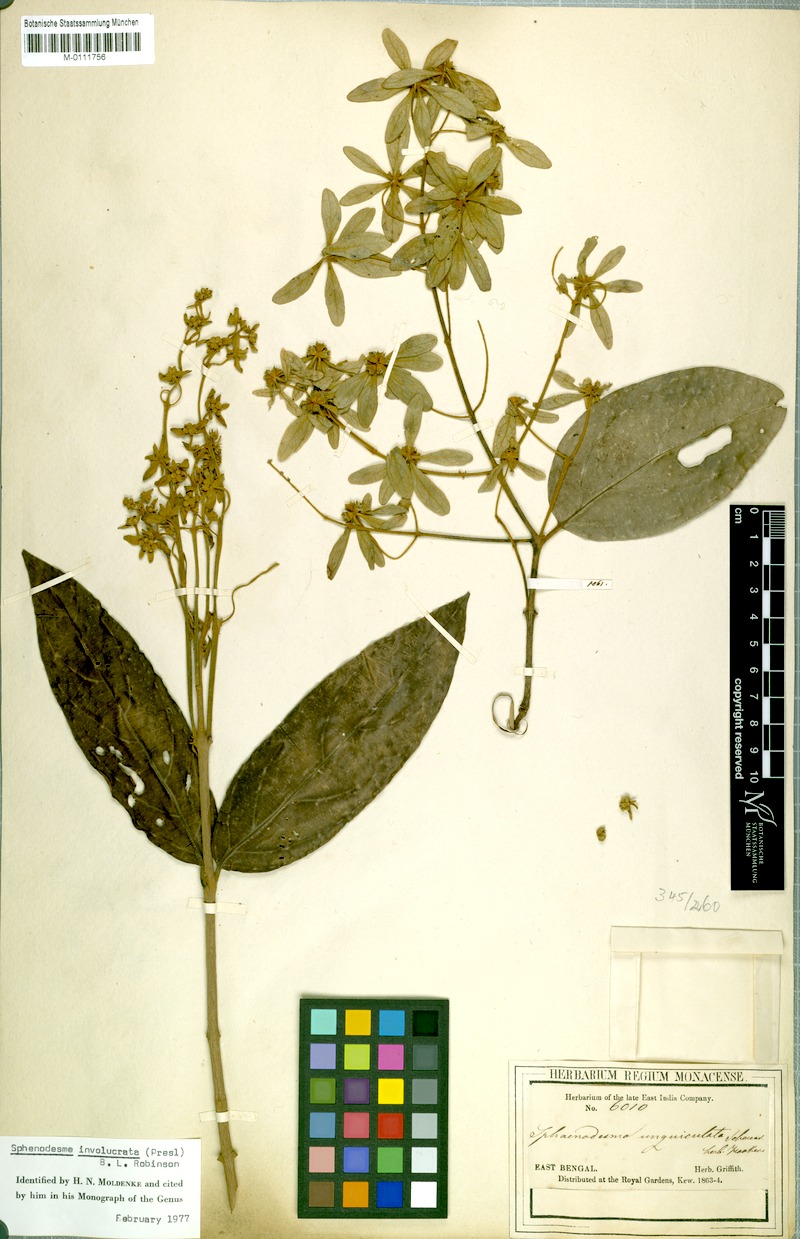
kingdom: Plantae
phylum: Tracheophyta
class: Magnoliopsida
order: Lamiales
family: Lamiaceae
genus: Sphenodesme
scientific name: Sphenodesme involucrata
